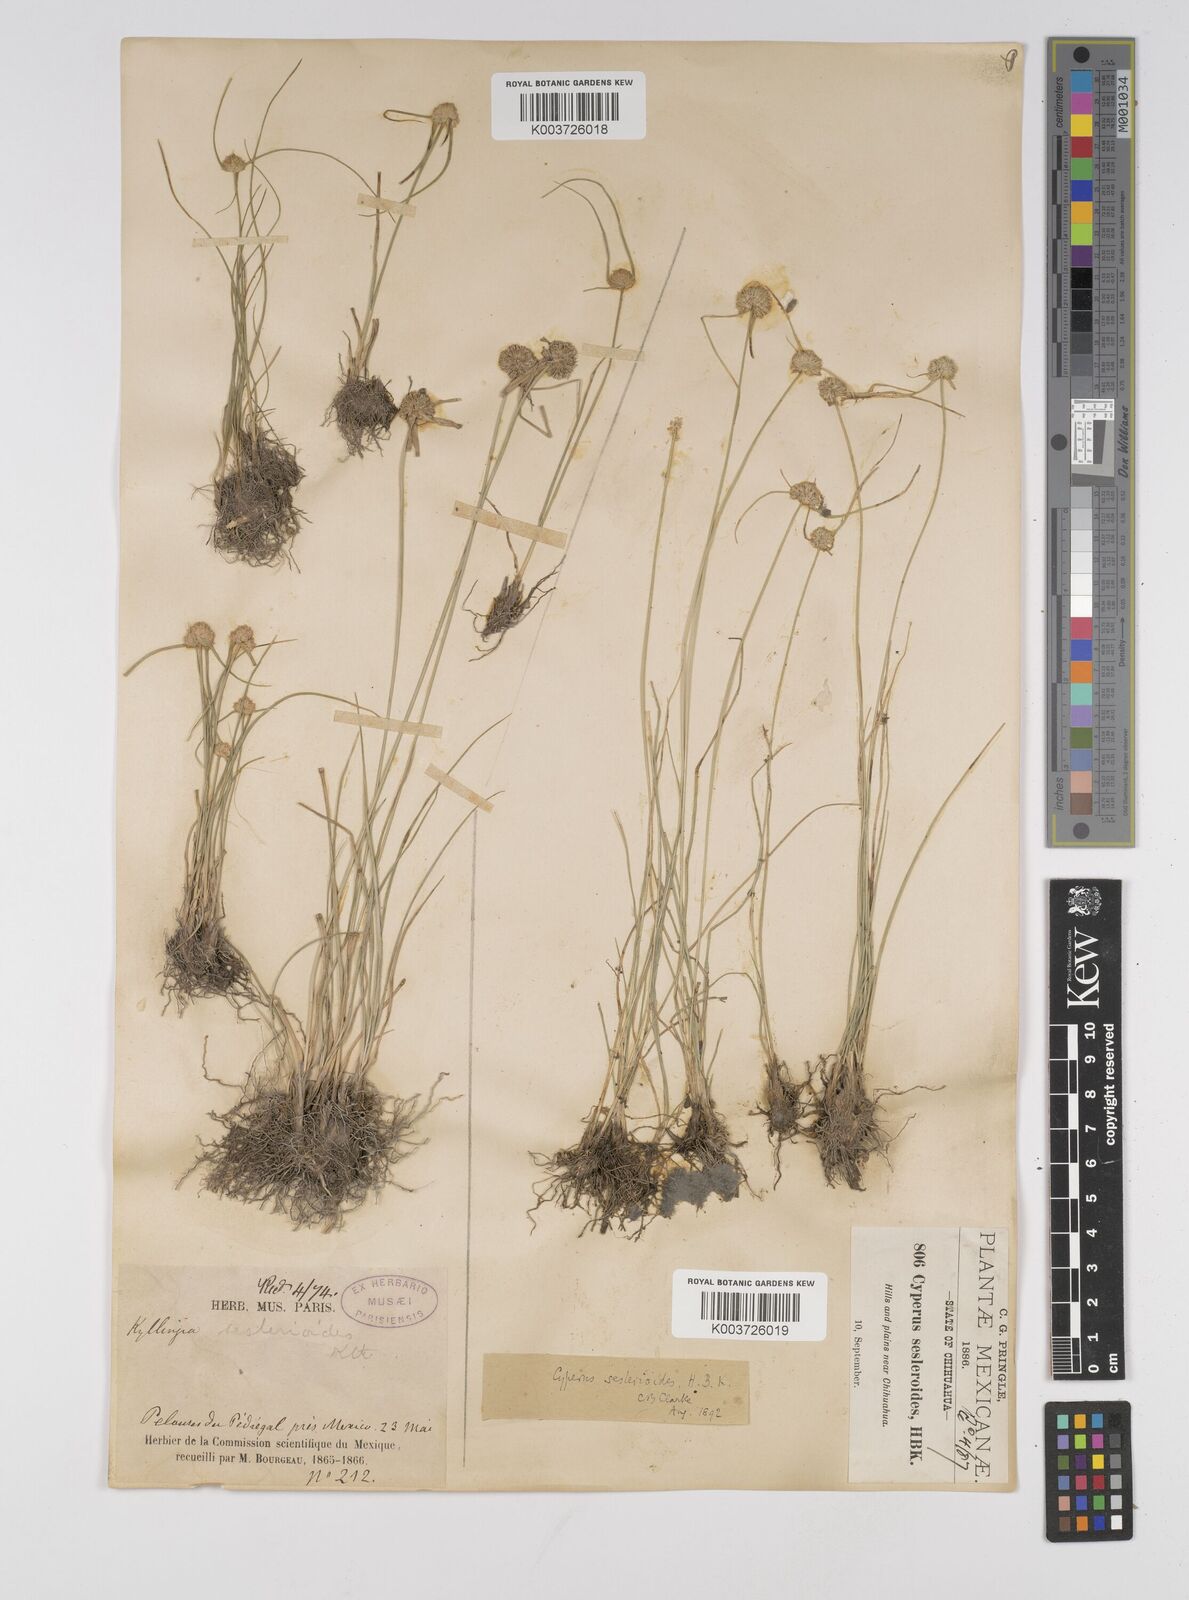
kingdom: Plantae
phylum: Tracheophyta
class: Liliopsida
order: Poales
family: Cyperaceae
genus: Cyperus
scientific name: Cyperus seslerioides
